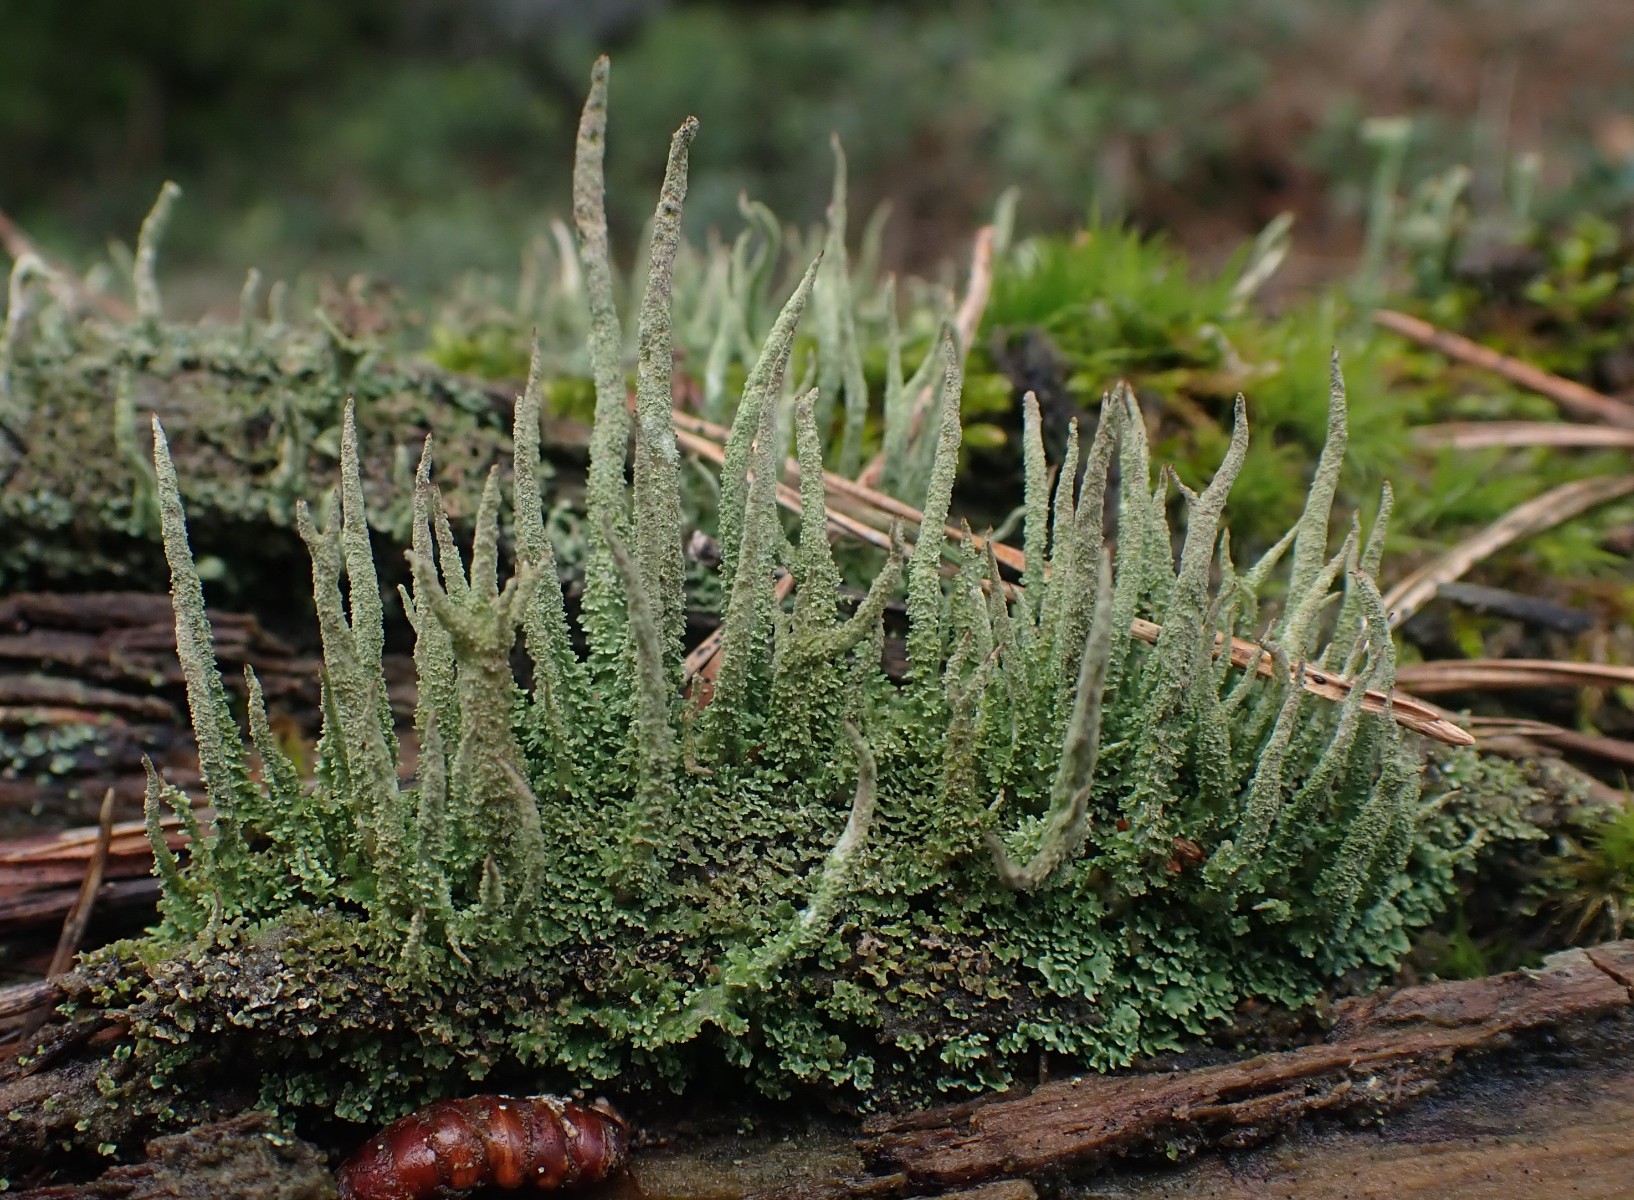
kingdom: Fungi
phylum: Ascomycota
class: Lecanoromycetes
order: Lecanorales
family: Cladoniaceae
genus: Cladonia
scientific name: Cladonia glauca
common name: grågrøn bægerlav
